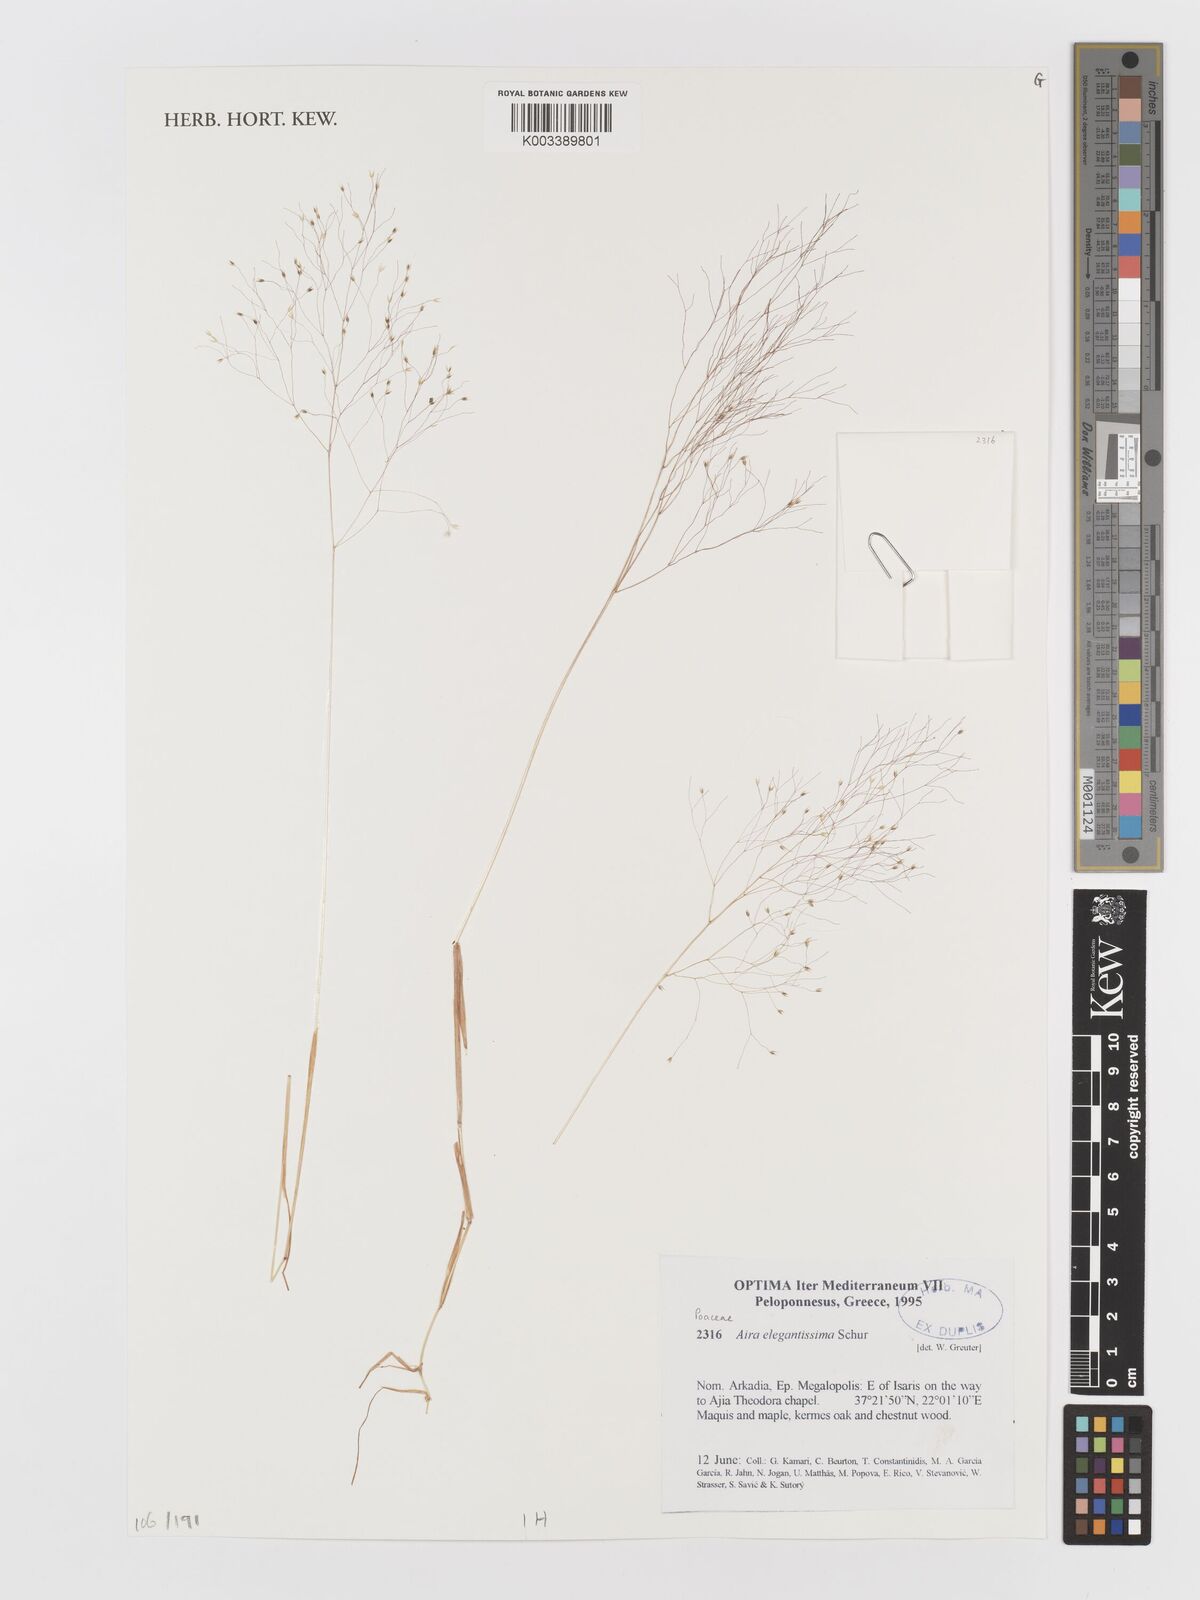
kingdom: Plantae
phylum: Tracheophyta
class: Liliopsida
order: Poales
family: Poaceae
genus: Aira
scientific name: Aira elegans
